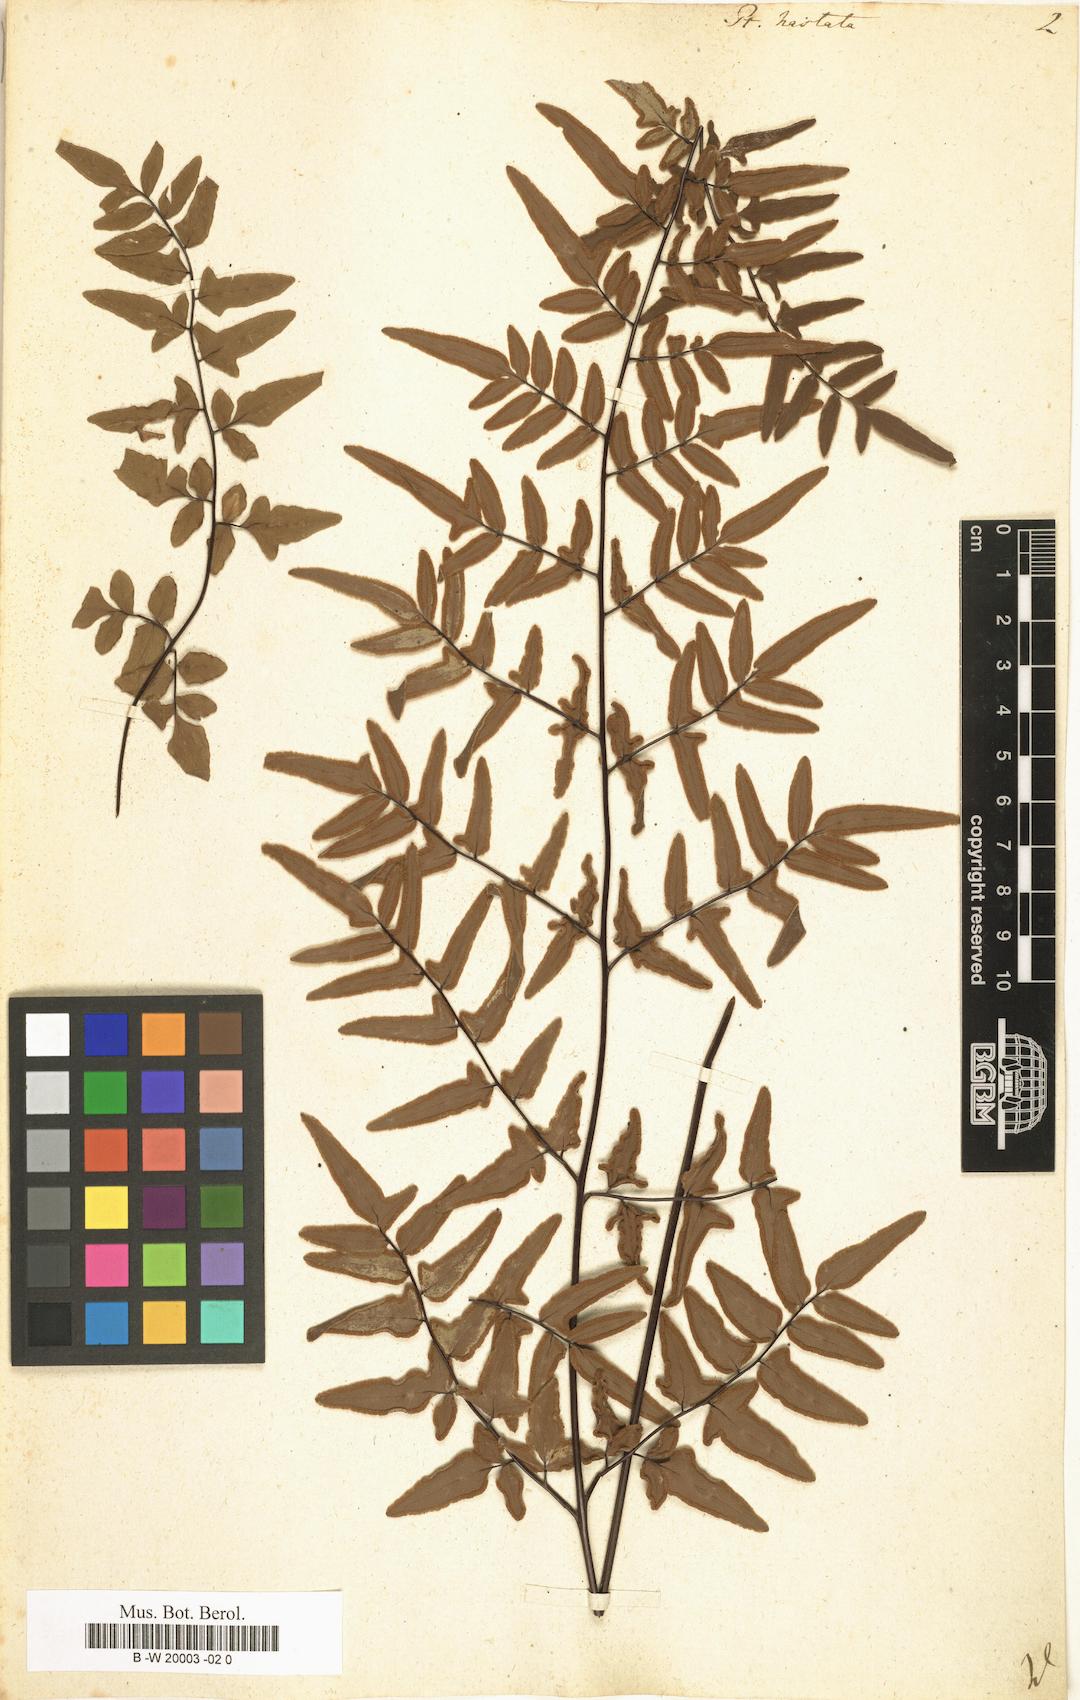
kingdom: Plantae
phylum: Tracheophyta
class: Polypodiopsida
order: Polypodiales
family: Pteridaceae
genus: Pteris
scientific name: Pteris hastata
